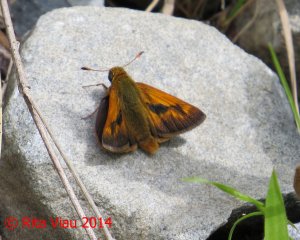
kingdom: Animalia
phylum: Arthropoda
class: Insecta
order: Lepidoptera
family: Hesperiidae
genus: Polites
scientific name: Polites
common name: Long Dash Skipper
